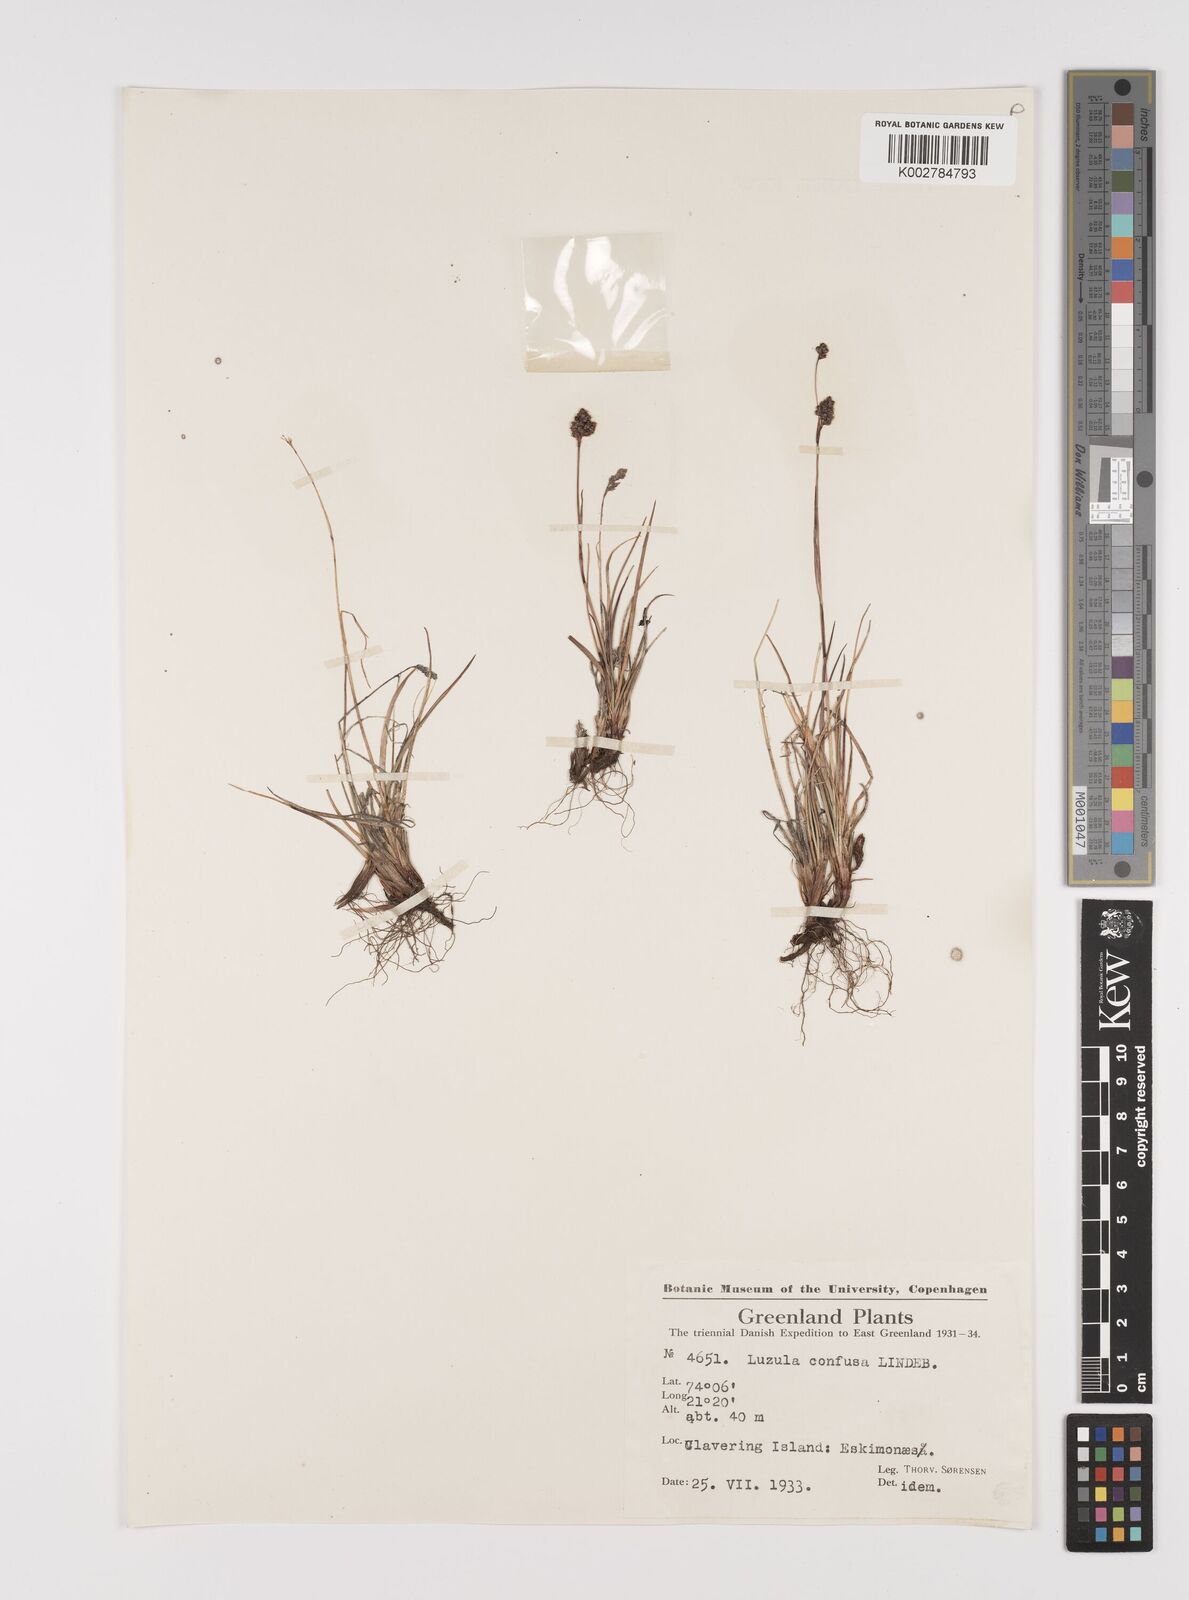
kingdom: Plantae
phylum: Tracheophyta
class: Liliopsida
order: Poales
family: Juncaceae
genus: Luzula
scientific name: Luzula confusa
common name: Northern wood rush
